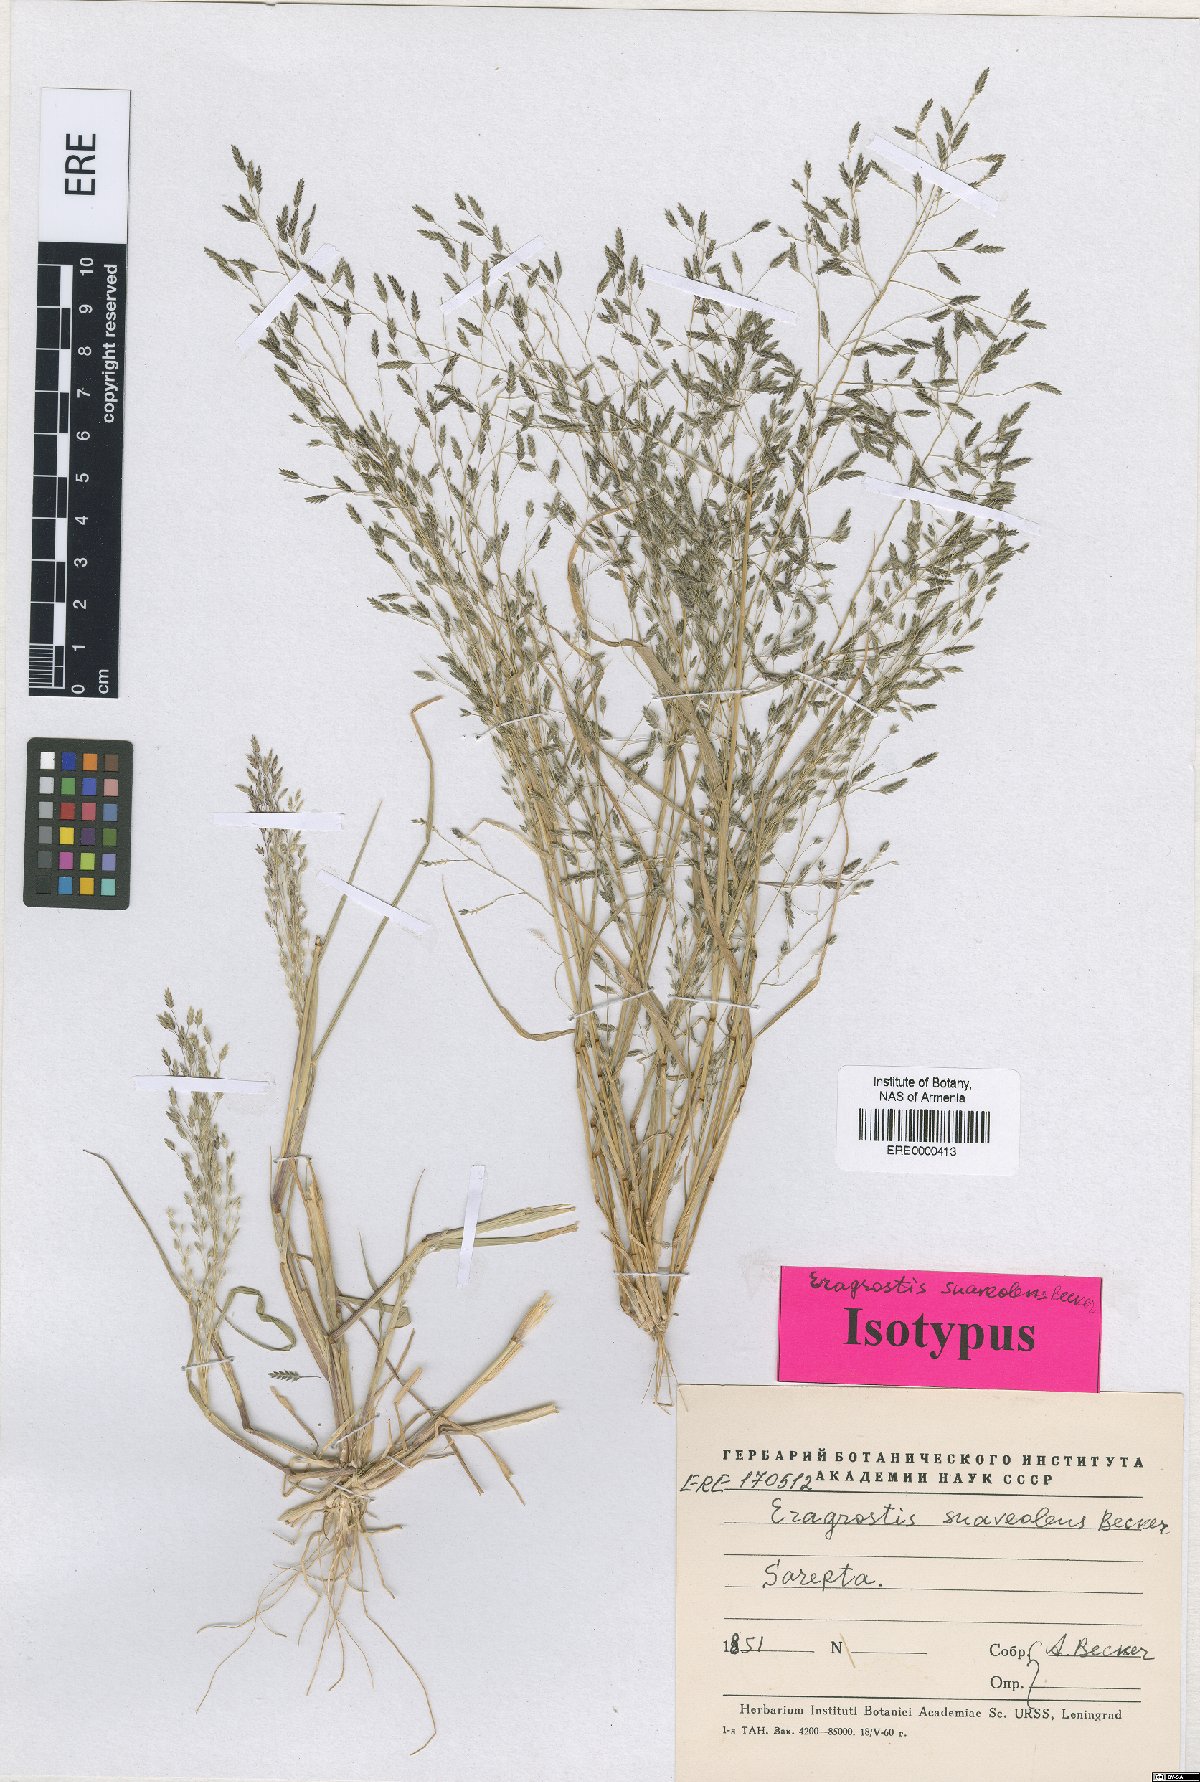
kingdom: Plantae
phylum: Tracheophyta
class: Liliopsida
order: Poales
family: Poaceae
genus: Eragrostis
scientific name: Eragrostis minor
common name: Small love-grass
